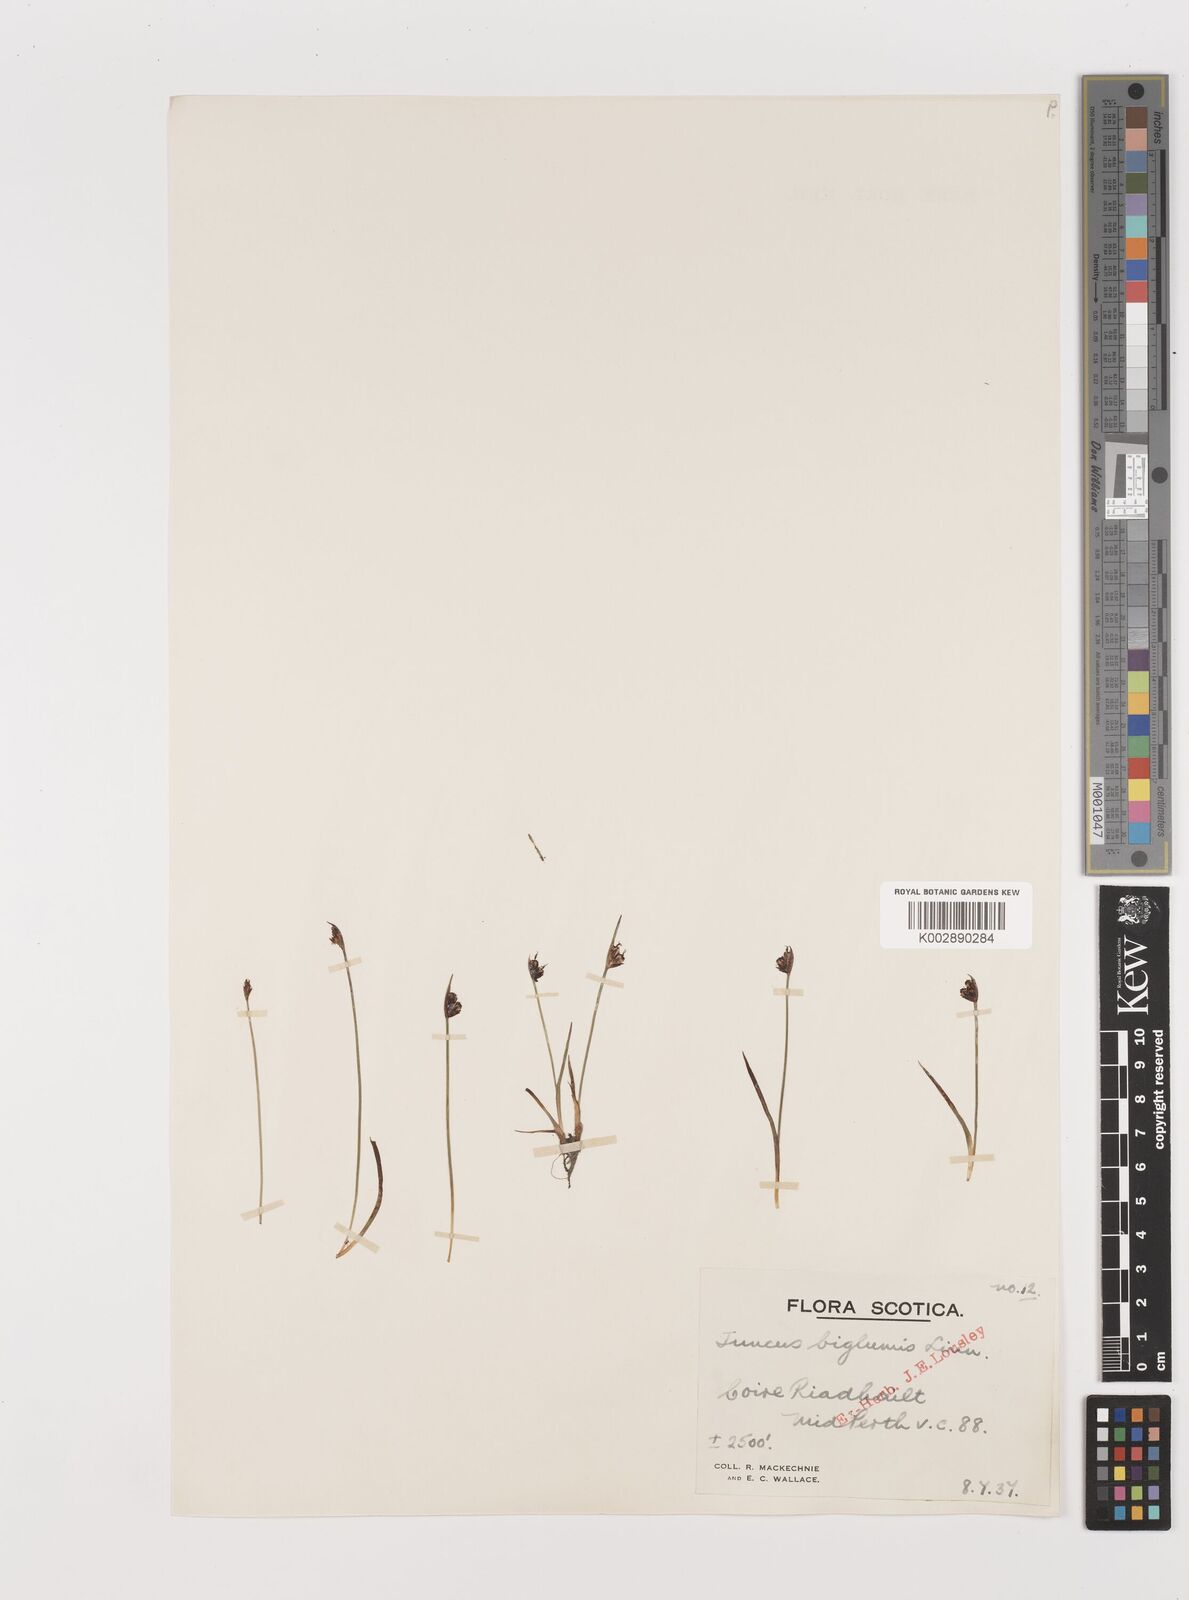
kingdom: Plantae
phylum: Tracheophyta
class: Liliopsida
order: Poales
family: Juncaceae
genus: Juncus
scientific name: Juncus biglumis
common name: Two-flowered rush
